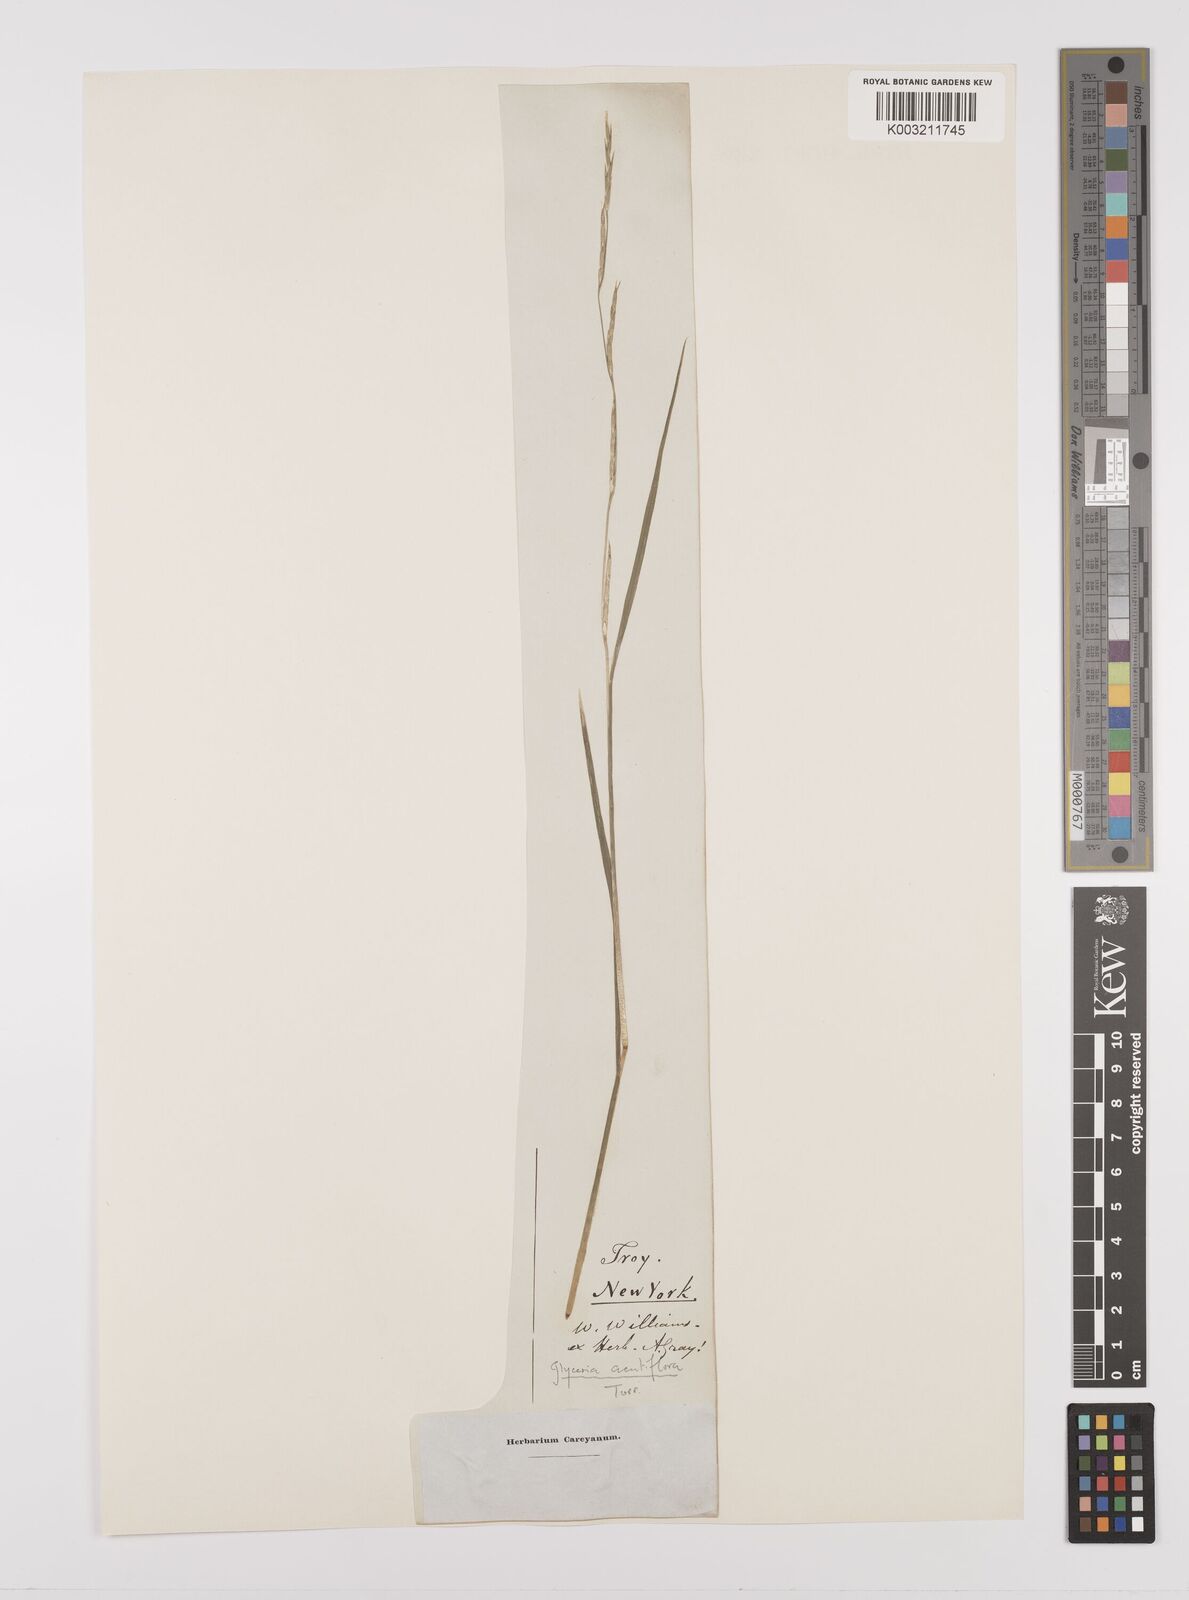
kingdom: Plantae
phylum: Tracheophyta
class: Liliopsida
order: Poales
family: Poaceae
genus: Glyceria
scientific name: Glyceria acutiflora
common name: Sharp-glumed manna-grass
